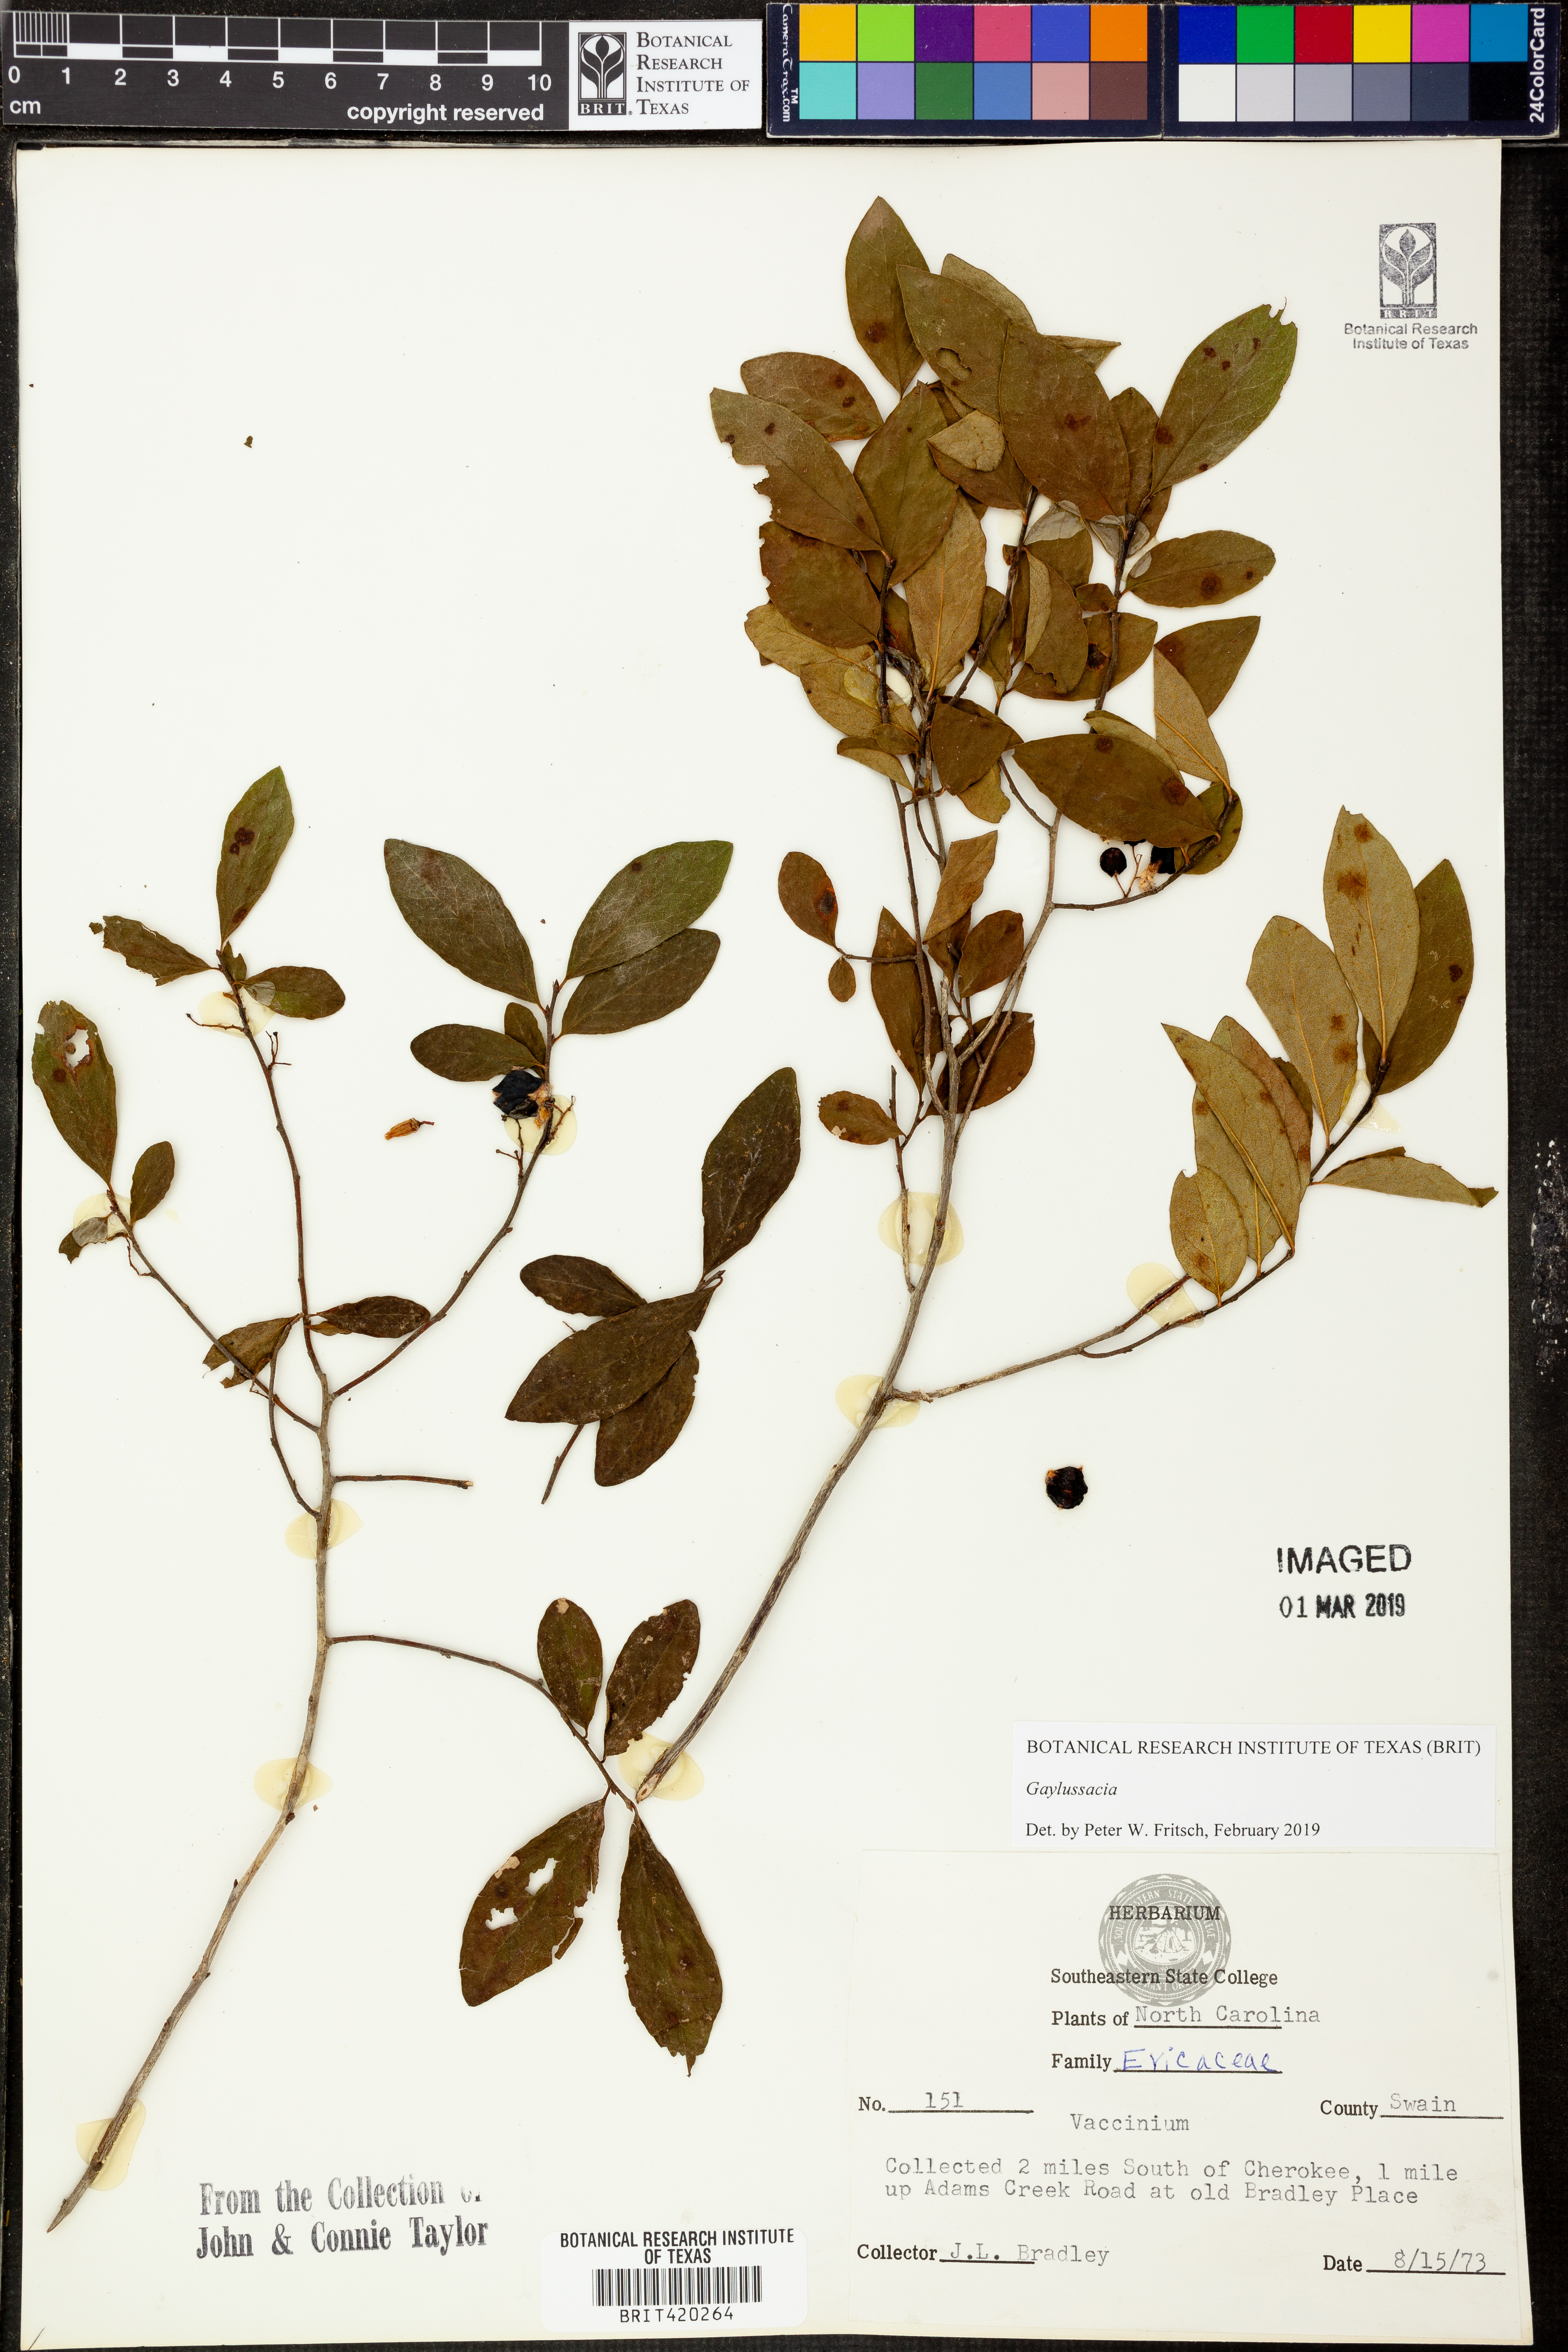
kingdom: Plantae
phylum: Tracheophyta
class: Magnoliopsida
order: Ericales
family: Ericaceae
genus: Gaylussacia
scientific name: Gaylussacia baccata
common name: Black huckleberry
